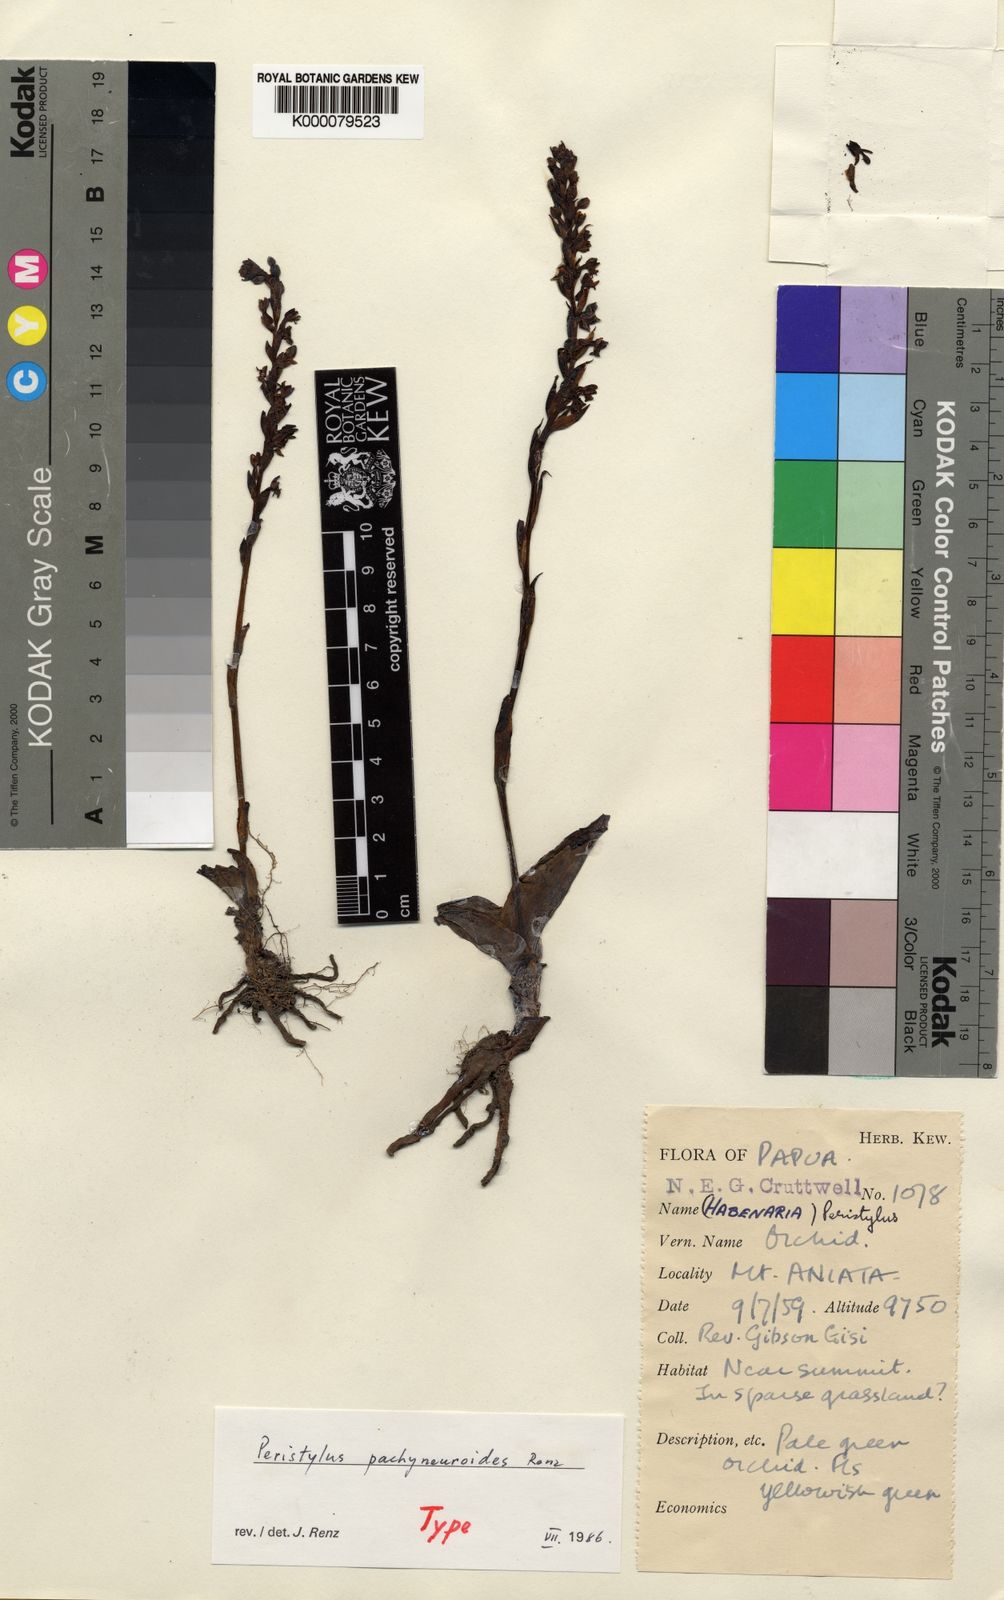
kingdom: Plantae
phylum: Tracheophyta
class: Liliopsida
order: Asparagales
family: Orchidaceae
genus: Peristylus
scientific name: Peristylus pachyneuroides
